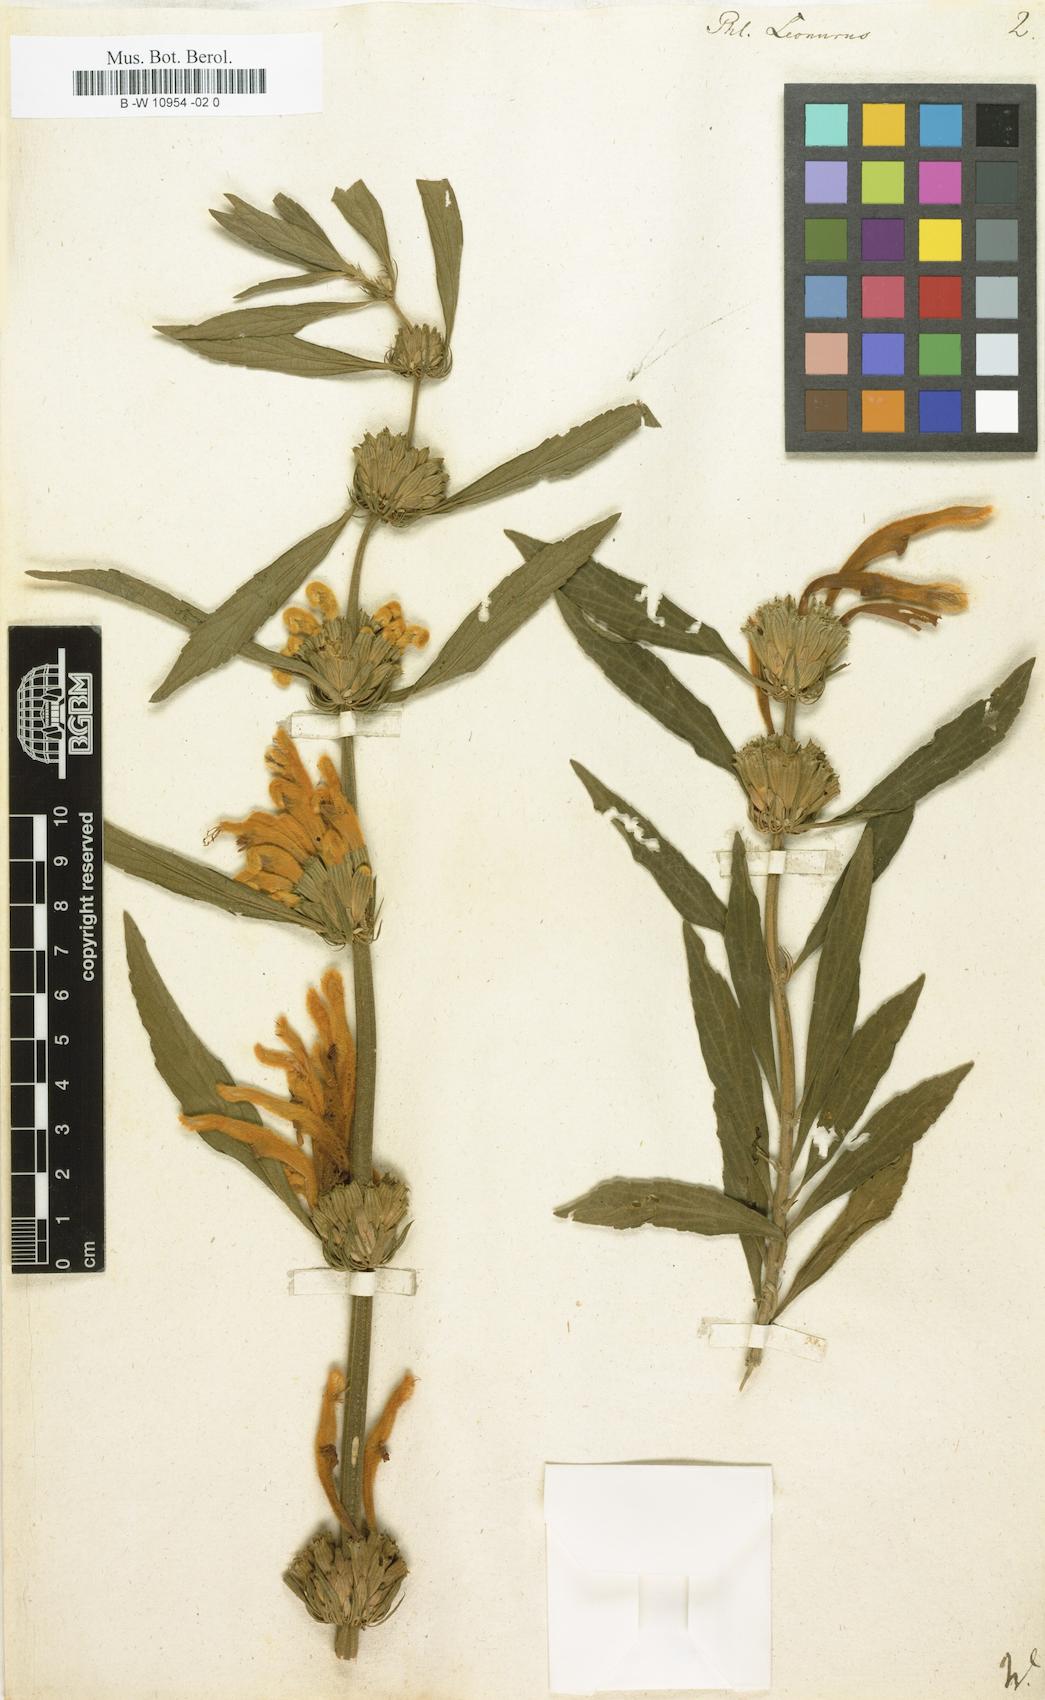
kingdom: Plantae
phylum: Tracheophyta
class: Magnoliopsida
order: Lamiales
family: Lamiaceae
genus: Leonotis
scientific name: Leonotis leonurus
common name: Lion's ear
